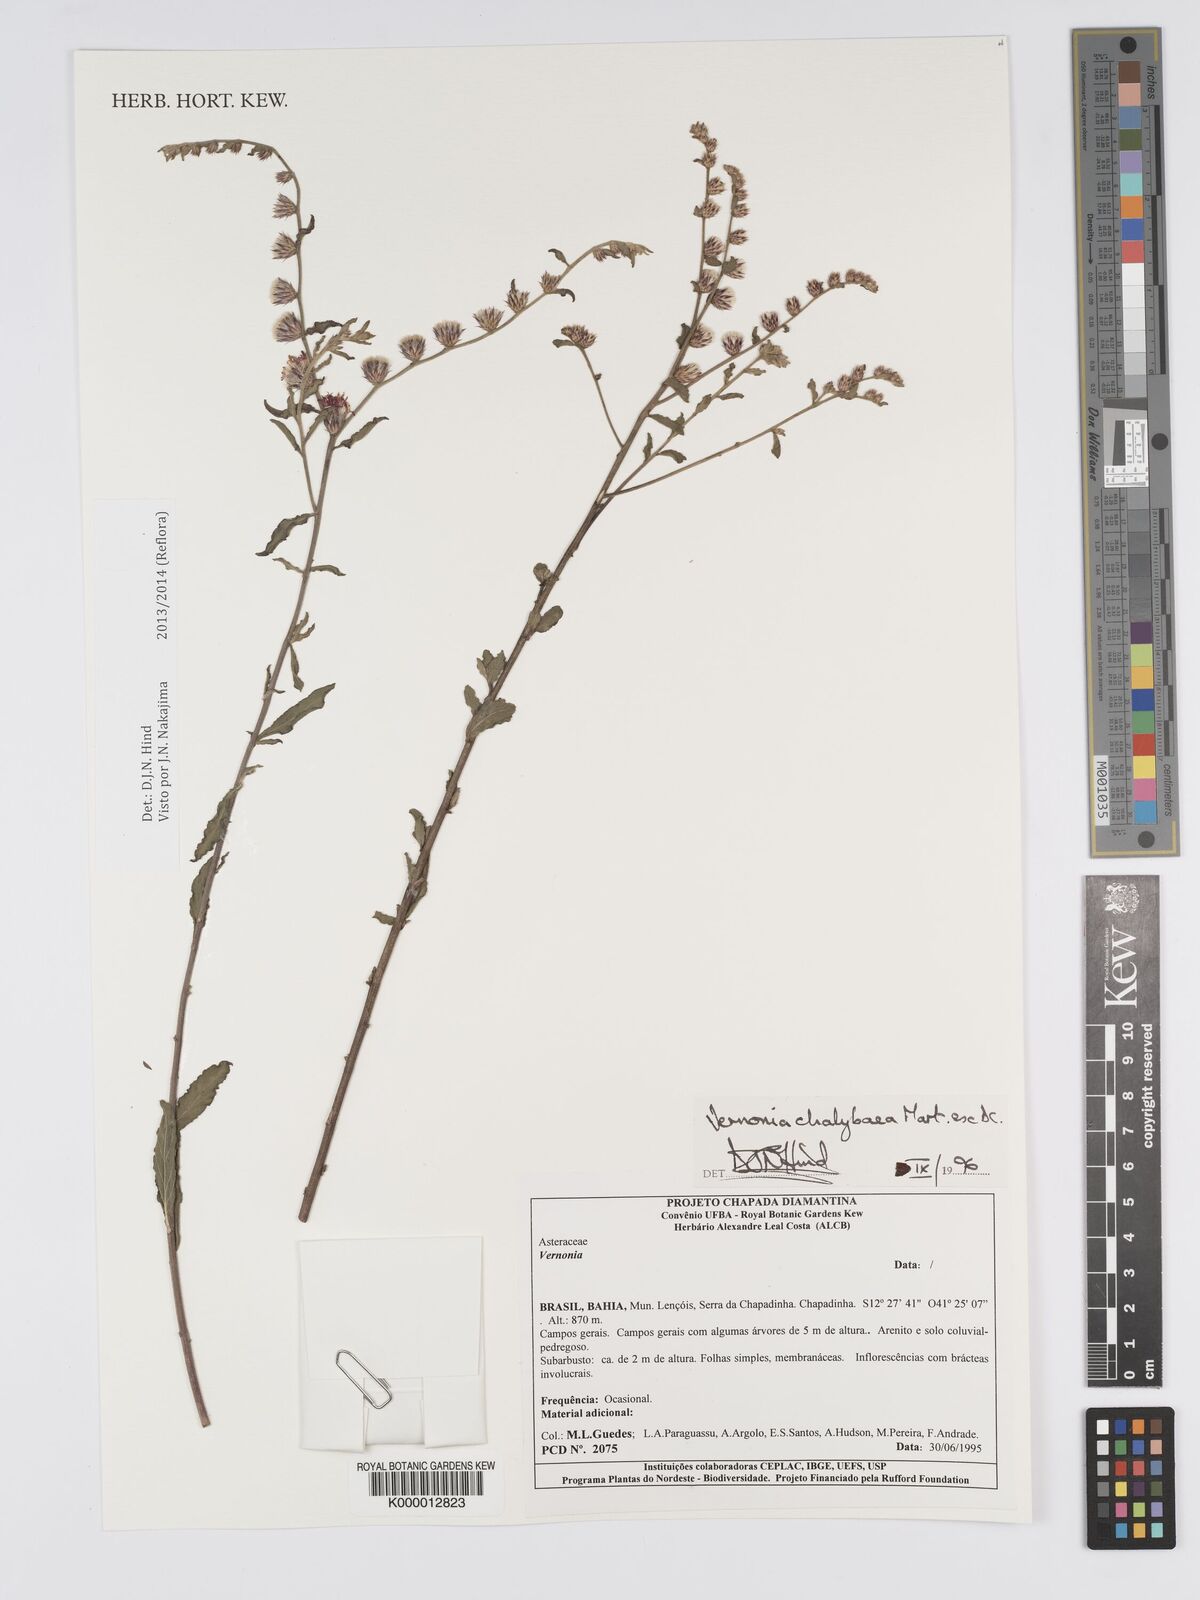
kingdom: Plantae
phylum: Tracheophyta
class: Magnoliopsida
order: Asterales
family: Asteraceae
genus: Lepidaploa
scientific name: Lepidaploa chalybaea
